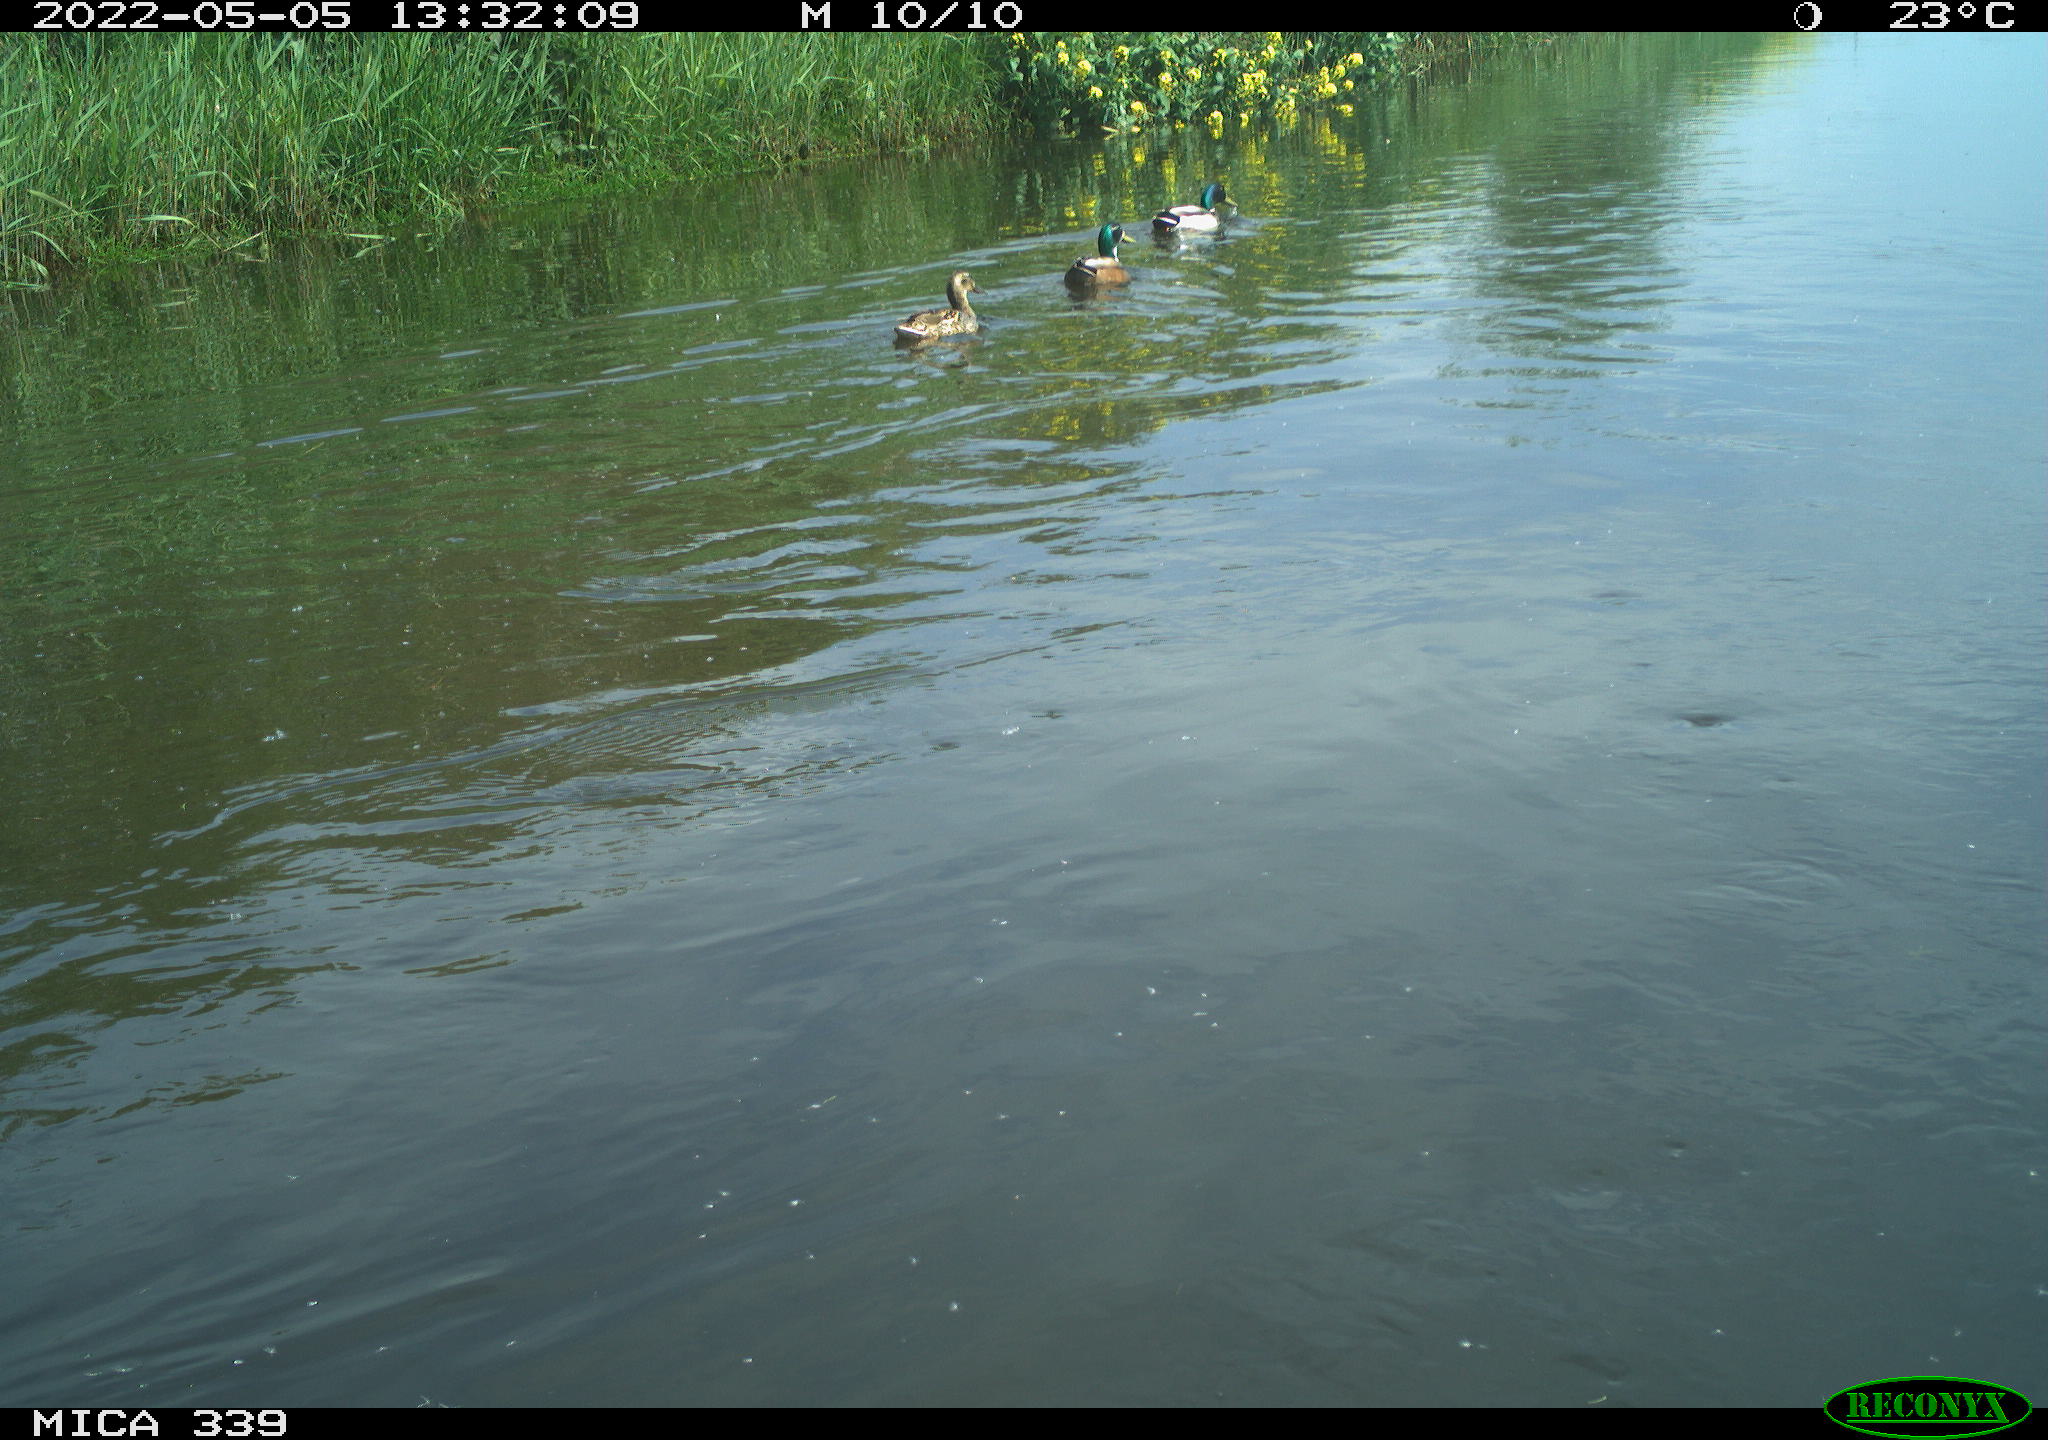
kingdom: Animalia
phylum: Chordata
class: Aves
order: Anseriformes
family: Anatidae
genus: Anas
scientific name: Anas platyrhynchos
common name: Mallard
